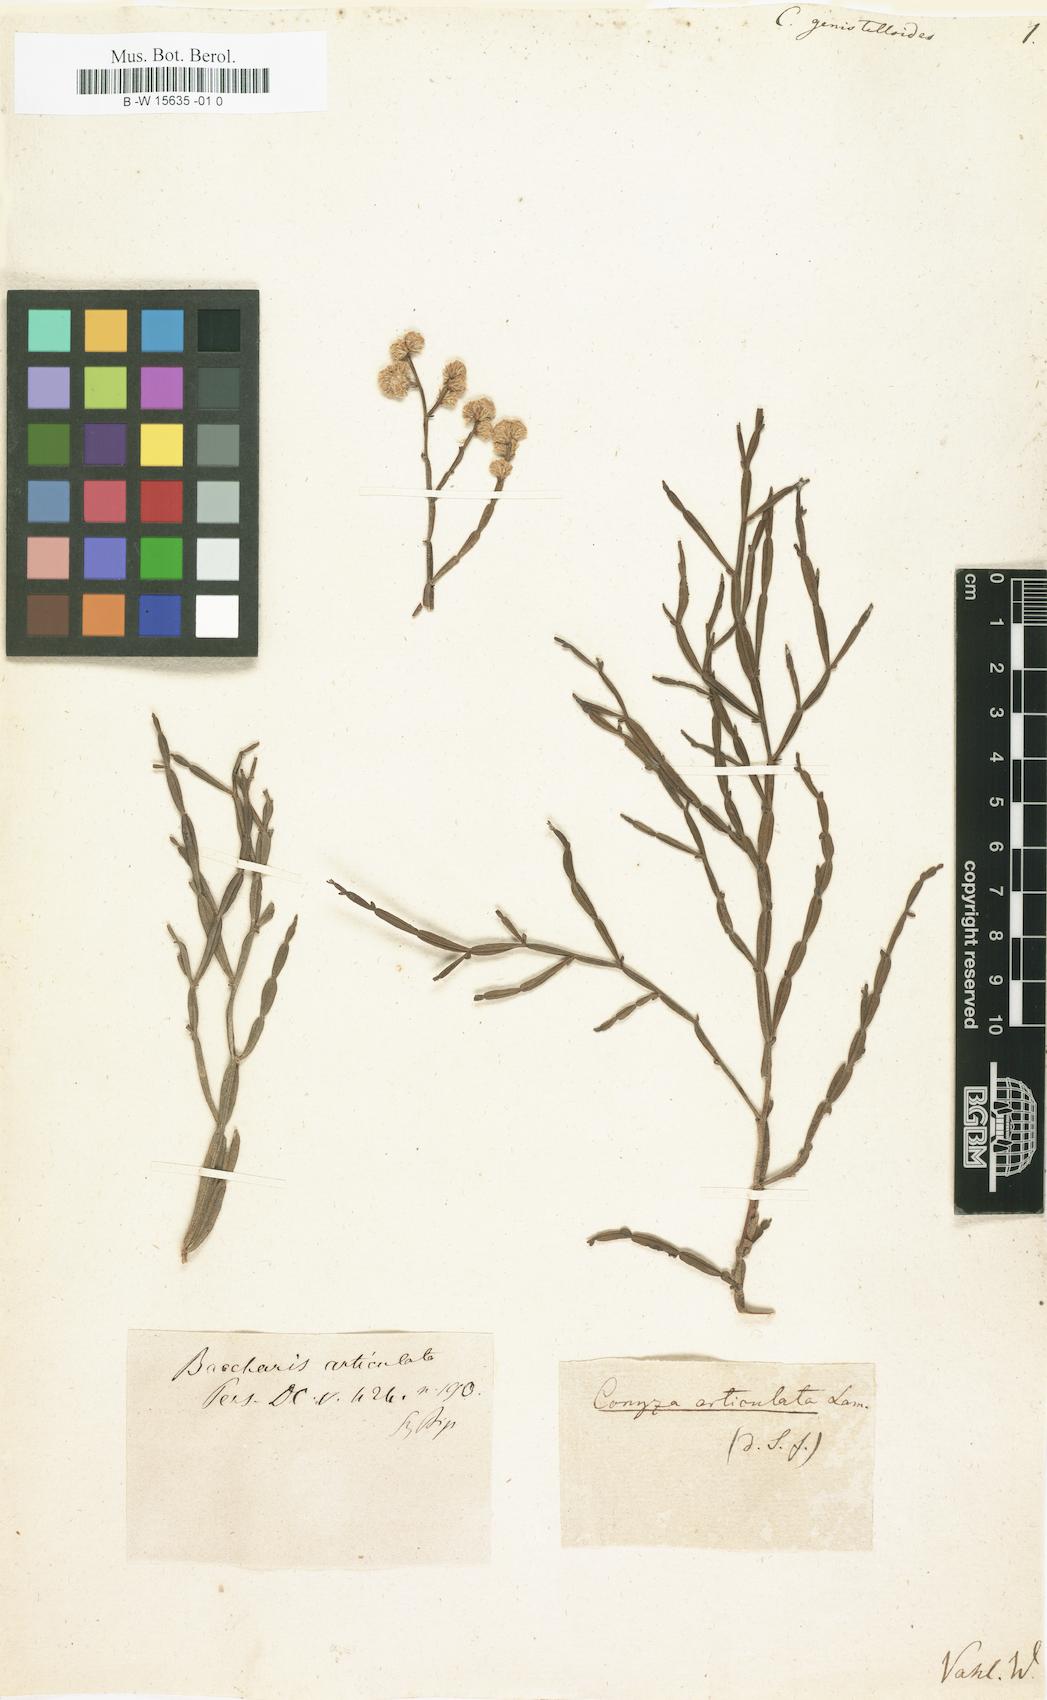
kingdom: Plantae
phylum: Tracheophyta
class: Magnoliopsida
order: Asterales
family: Asteraceae
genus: Baccharis
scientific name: Baccharis genistelloides
